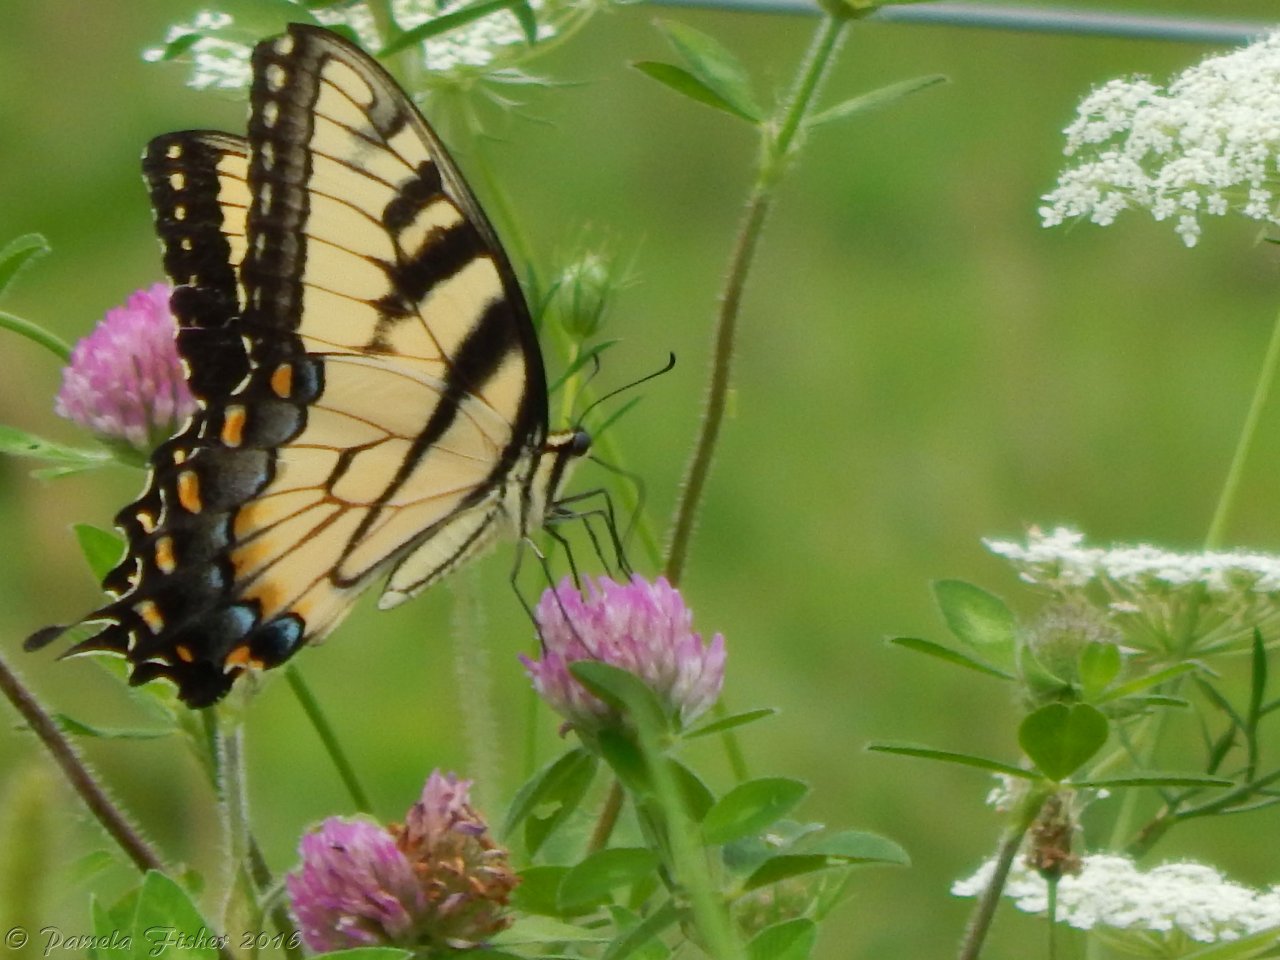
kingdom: Animalia
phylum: Arthropoda
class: Insecta
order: Lepidoptera
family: Papilionidae
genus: Pterourus
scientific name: Pterourus glaucus
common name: Eastern Tiger Swallowtail
